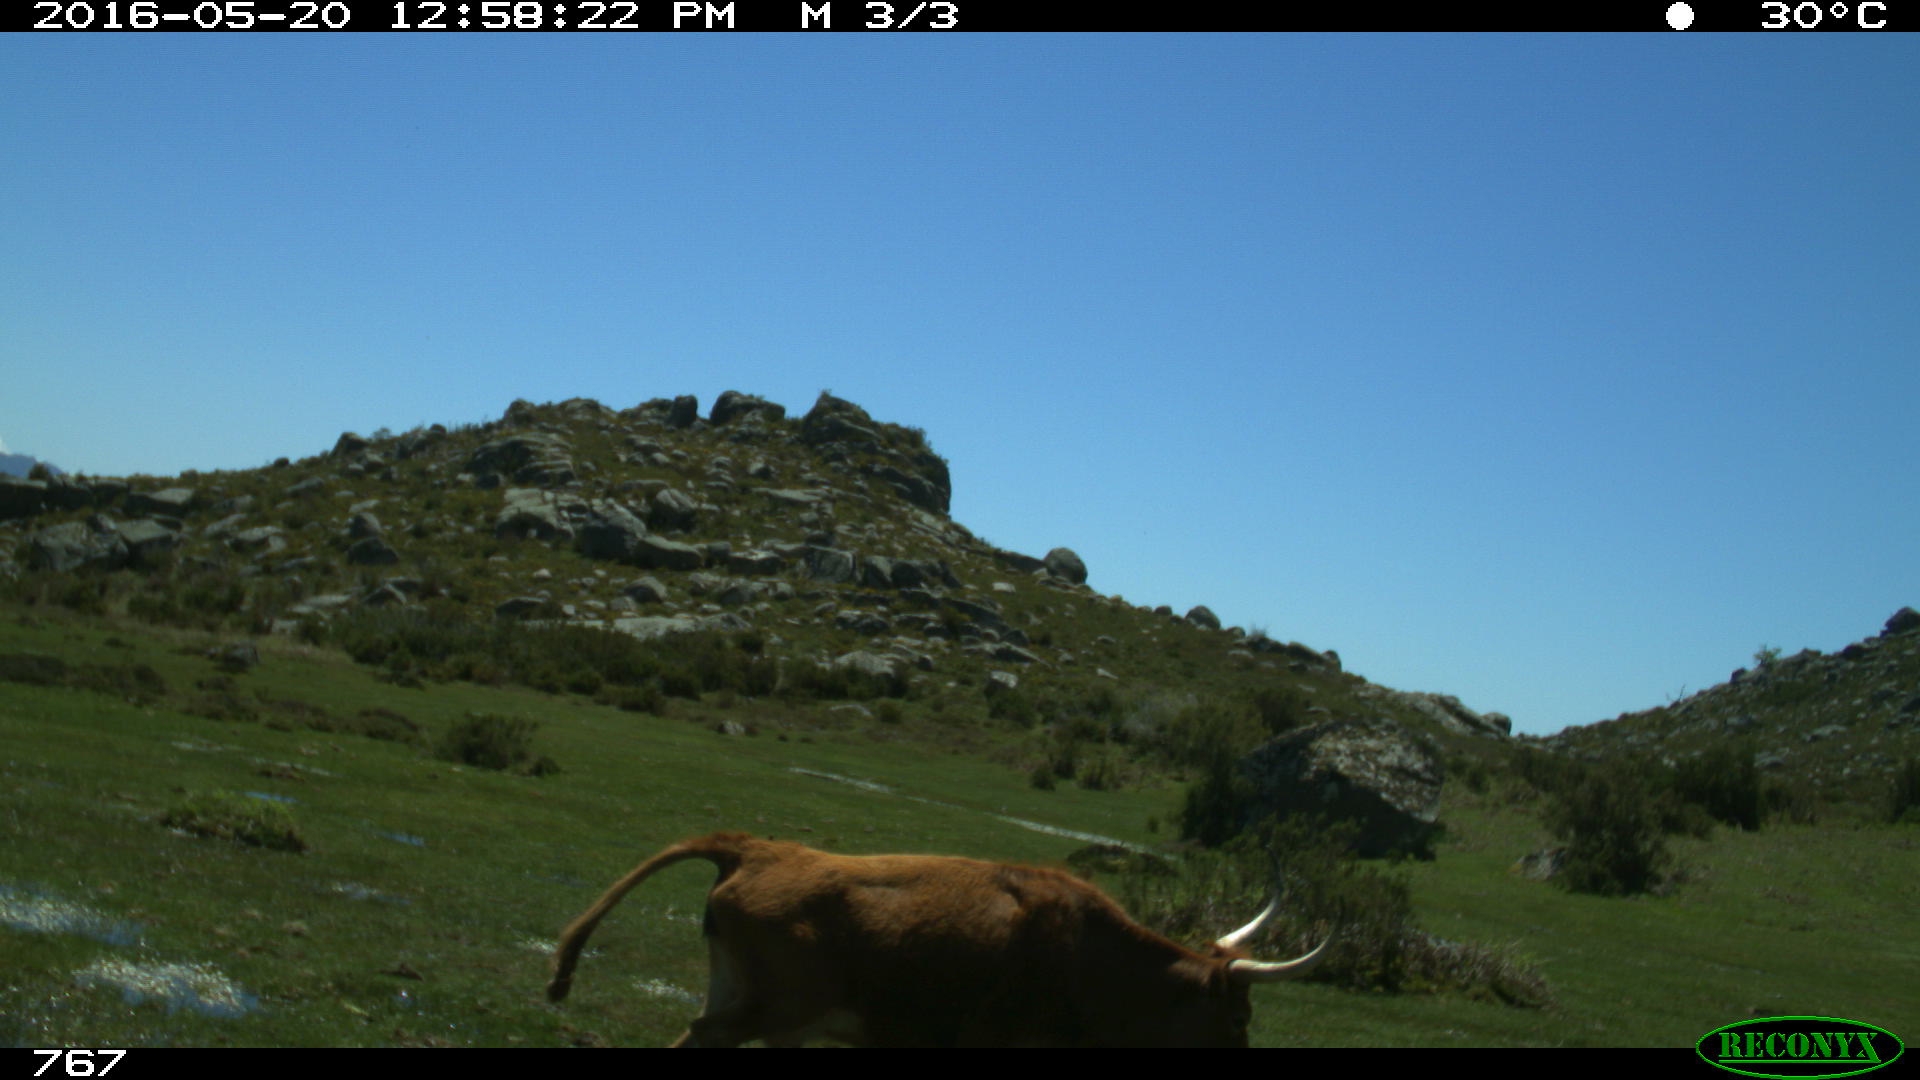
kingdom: Animalia
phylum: Chordata
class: Mammalia
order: Artiodactyla
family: Bovidae
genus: Bos
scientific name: Bos taurus
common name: Domesticated cattle
